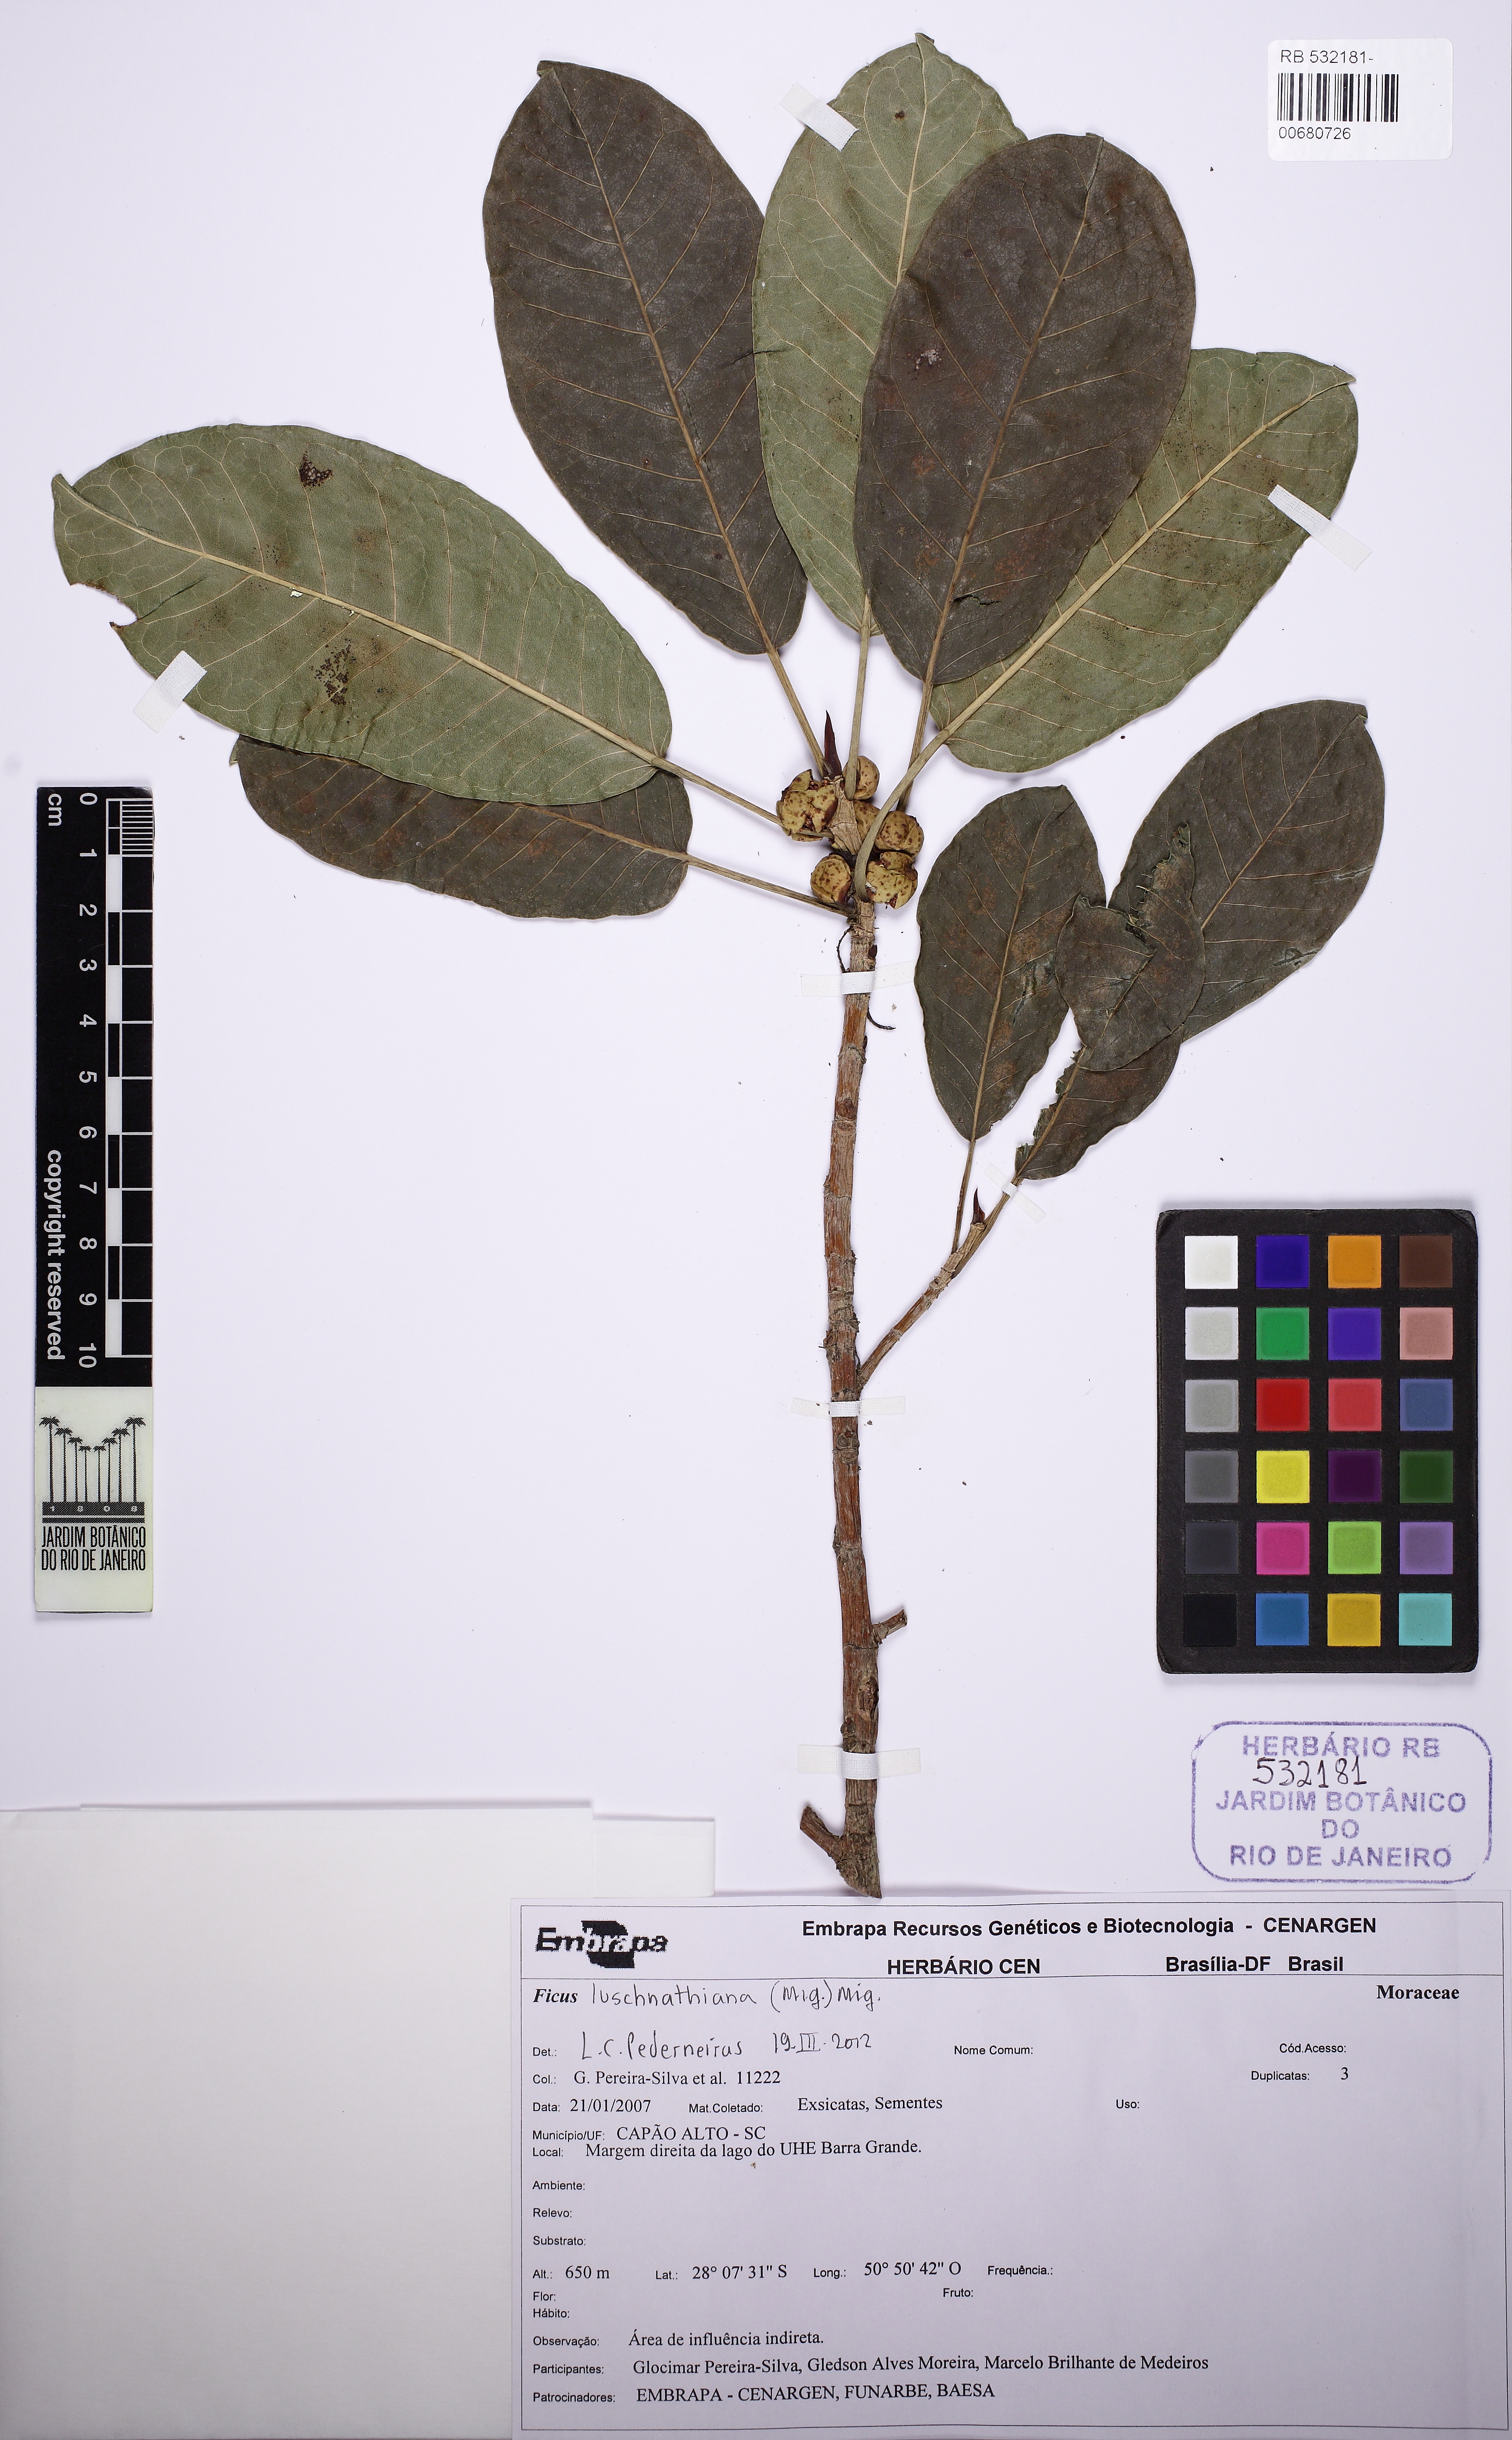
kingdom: Plantae
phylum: Tracheophyta
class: Magnoliopsida
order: Rosales
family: Moraceae
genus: Ficus
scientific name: Ficus luschnathiana
